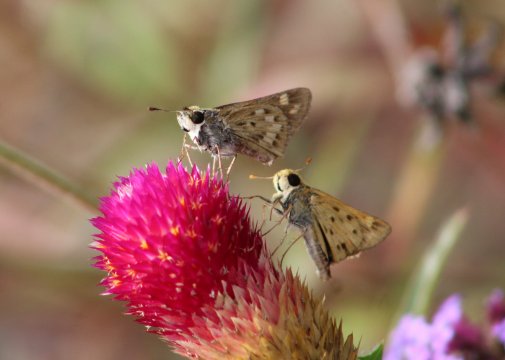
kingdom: Animalia
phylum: Arthropoda
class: Insecta
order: Lepidoptera
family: Hesperiidae
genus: Hylephila
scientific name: Hylephila phyleus
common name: Fiery Skipper
